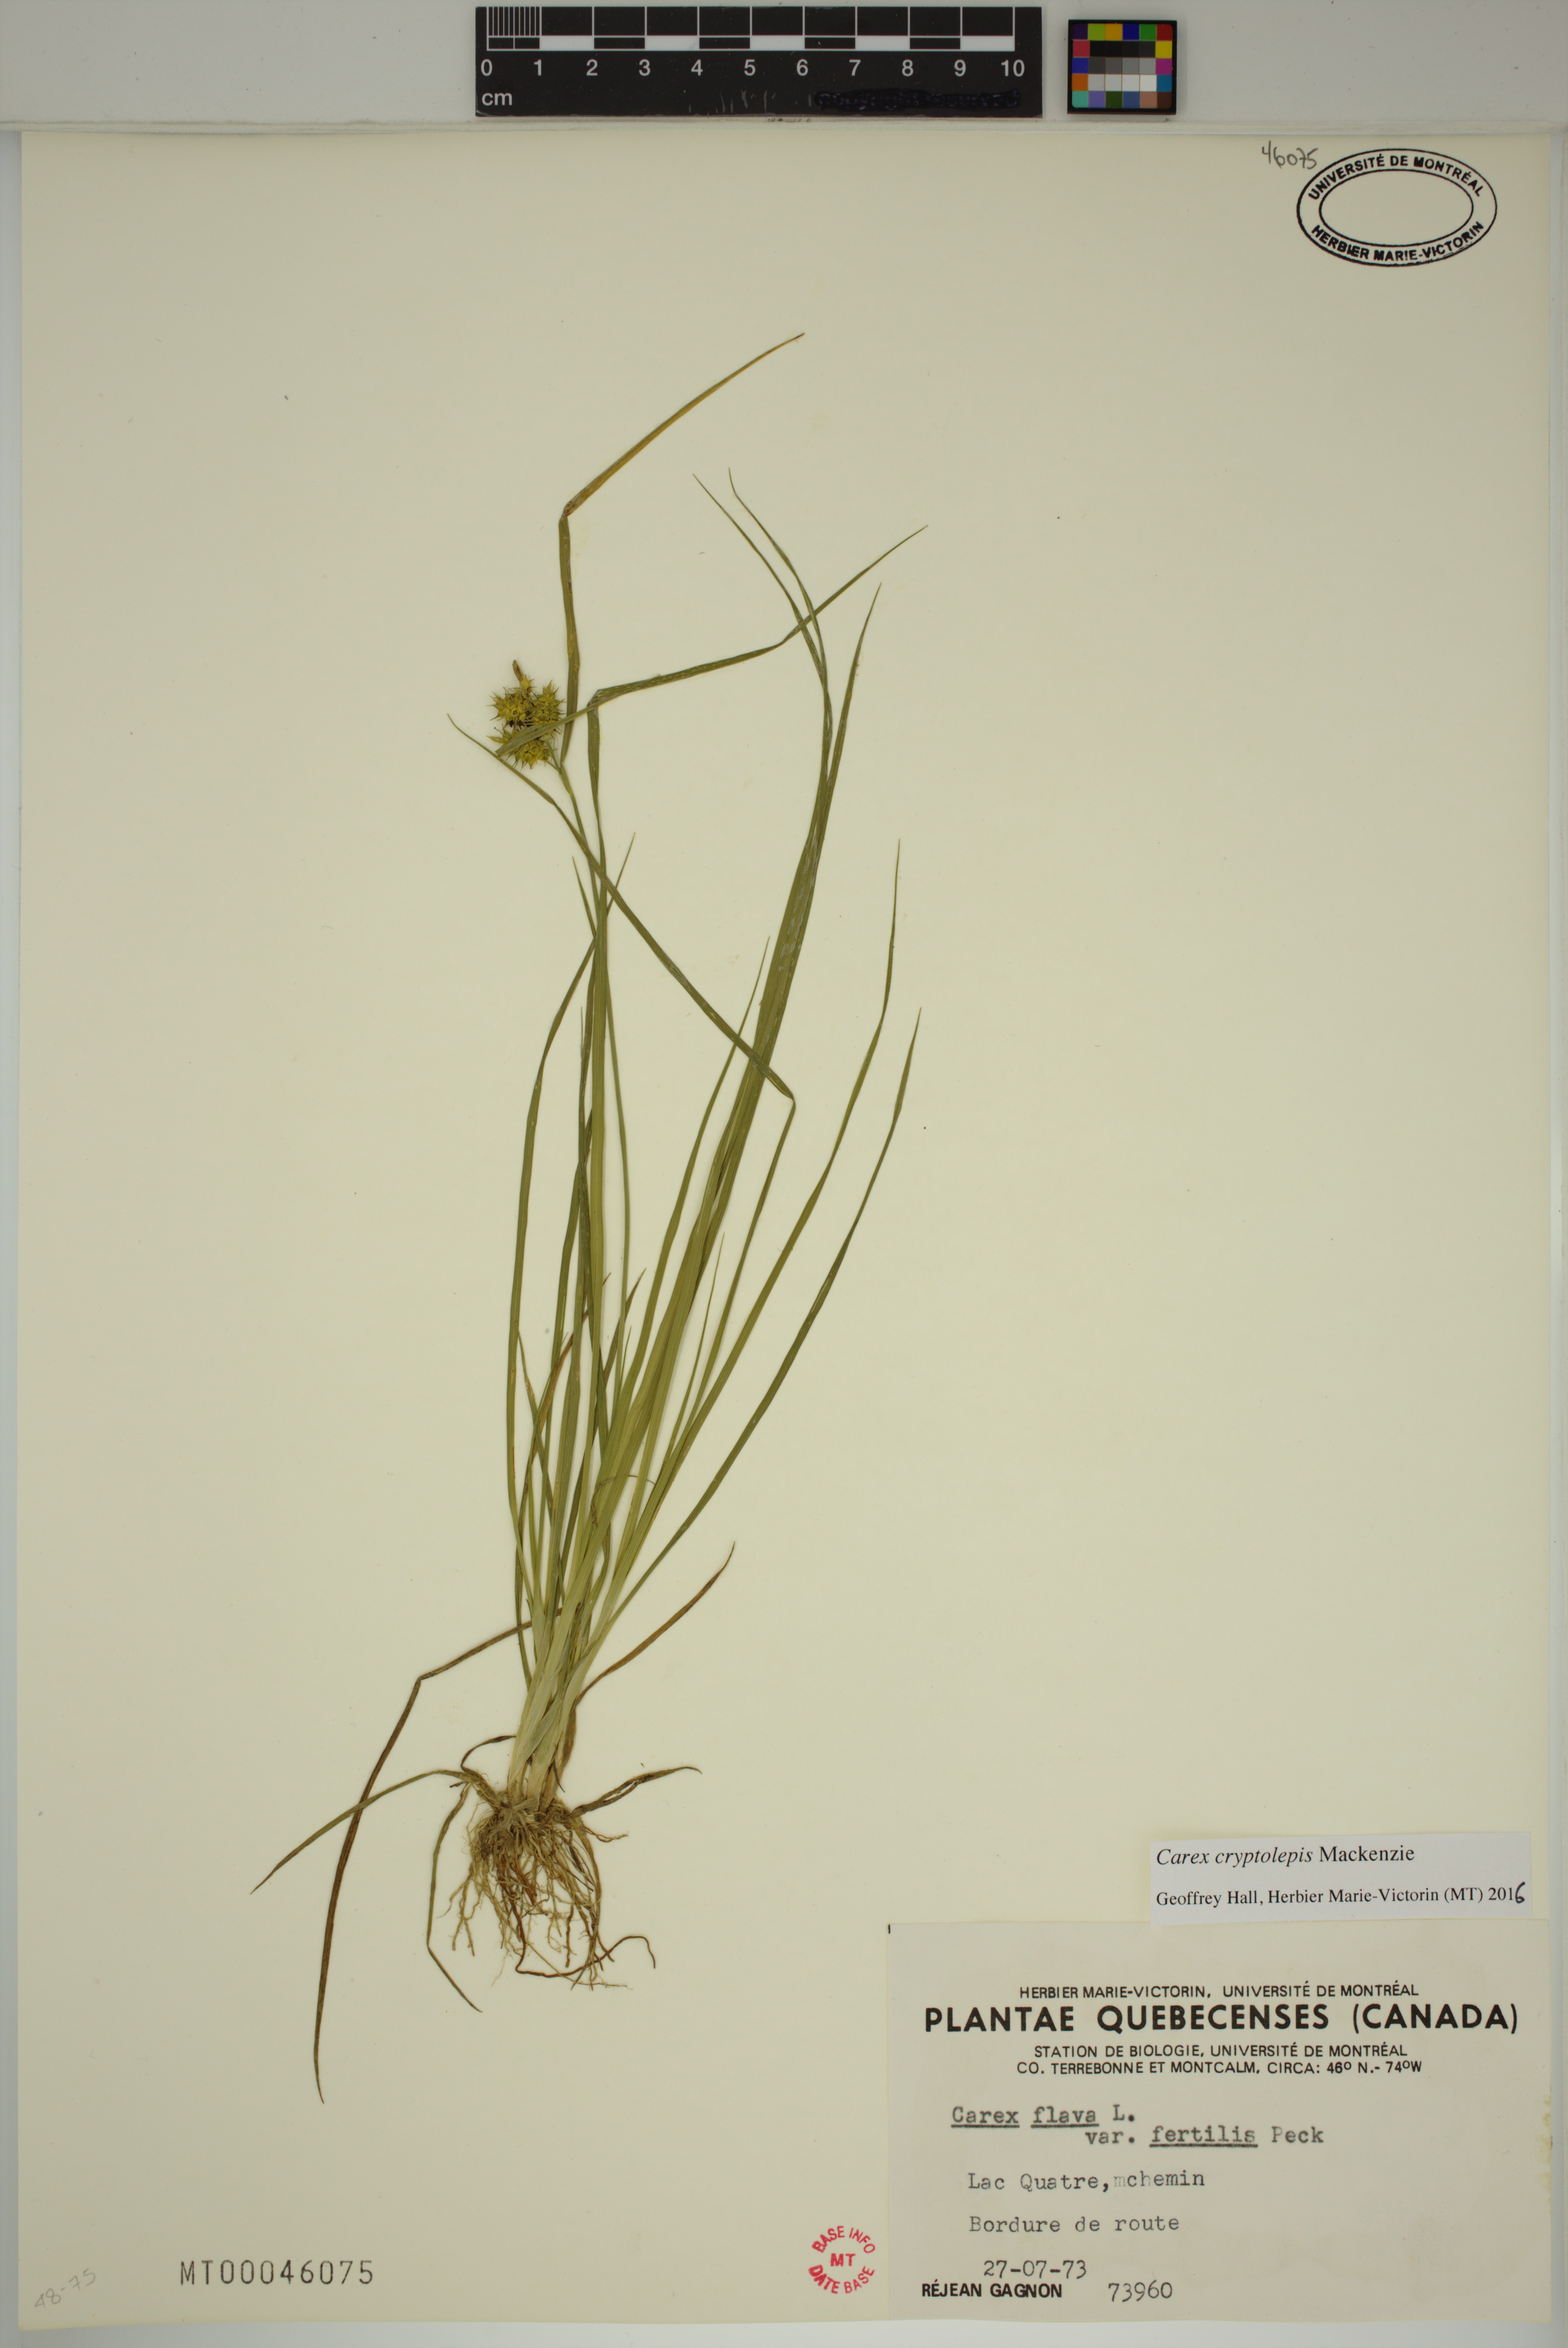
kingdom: Plantae
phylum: Tracheophyta
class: Liliopsida
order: Poales
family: Cyperaceae
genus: Carex
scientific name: Carex cryptolepis
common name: Northeastern sedge
